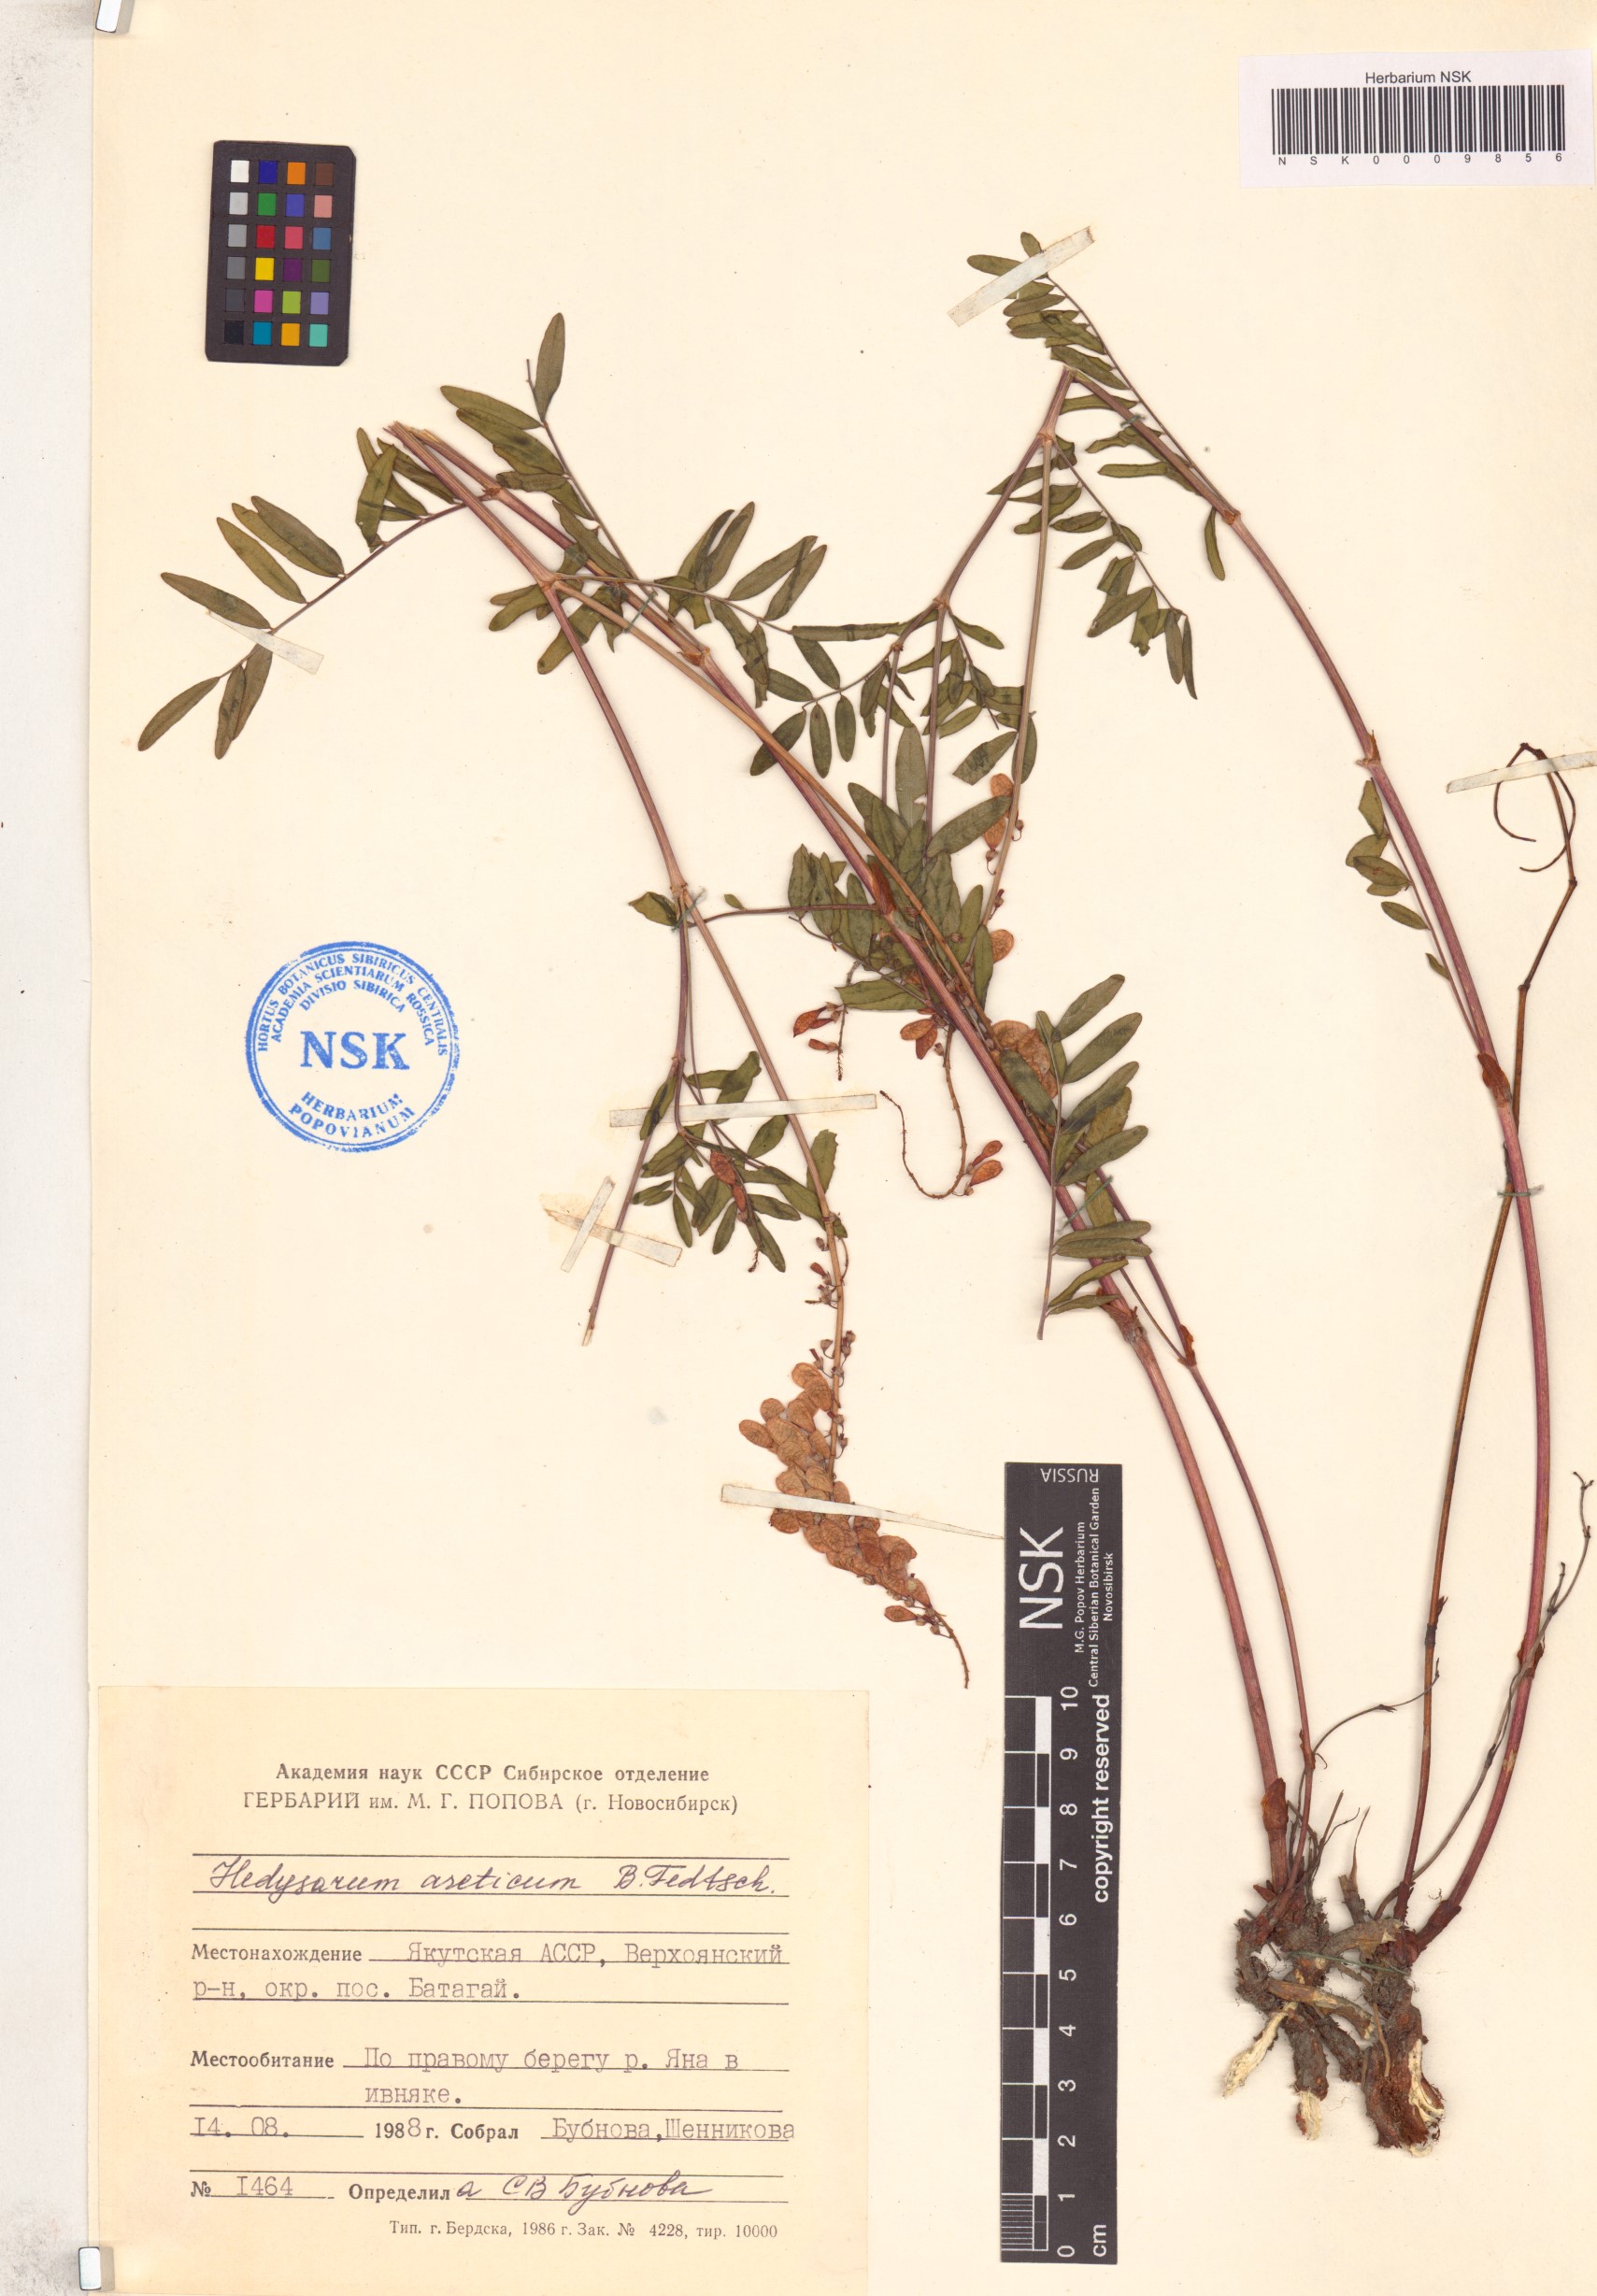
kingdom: Plantae
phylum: Tracheophyta
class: Magnoliopsida
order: Fabales
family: Fabaceae
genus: Hedysarum
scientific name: Hedysarum hedysaroides
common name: Alpine french-honeysuckle
